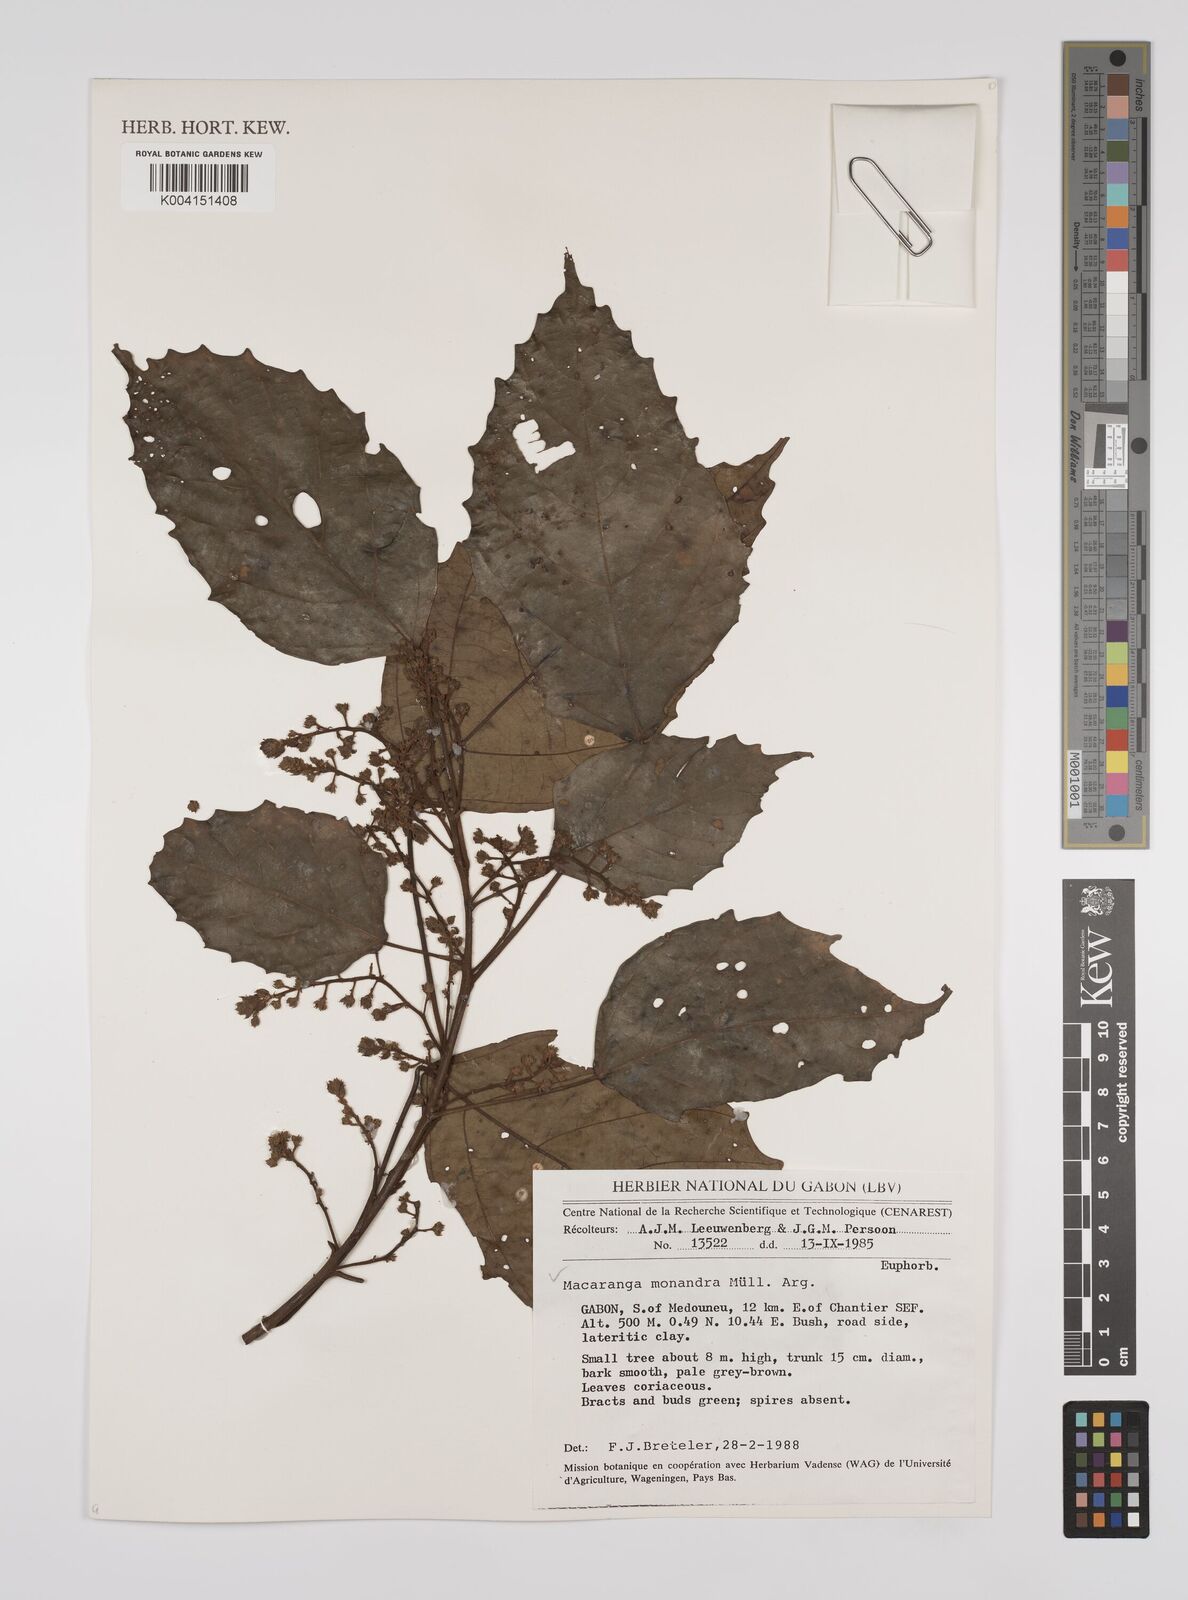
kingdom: Plantae
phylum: Tracheophyta
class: Magnoliopsida
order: Malpighiales
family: Euphorbiaceae
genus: Macaranga
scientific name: Macaranga monandra
